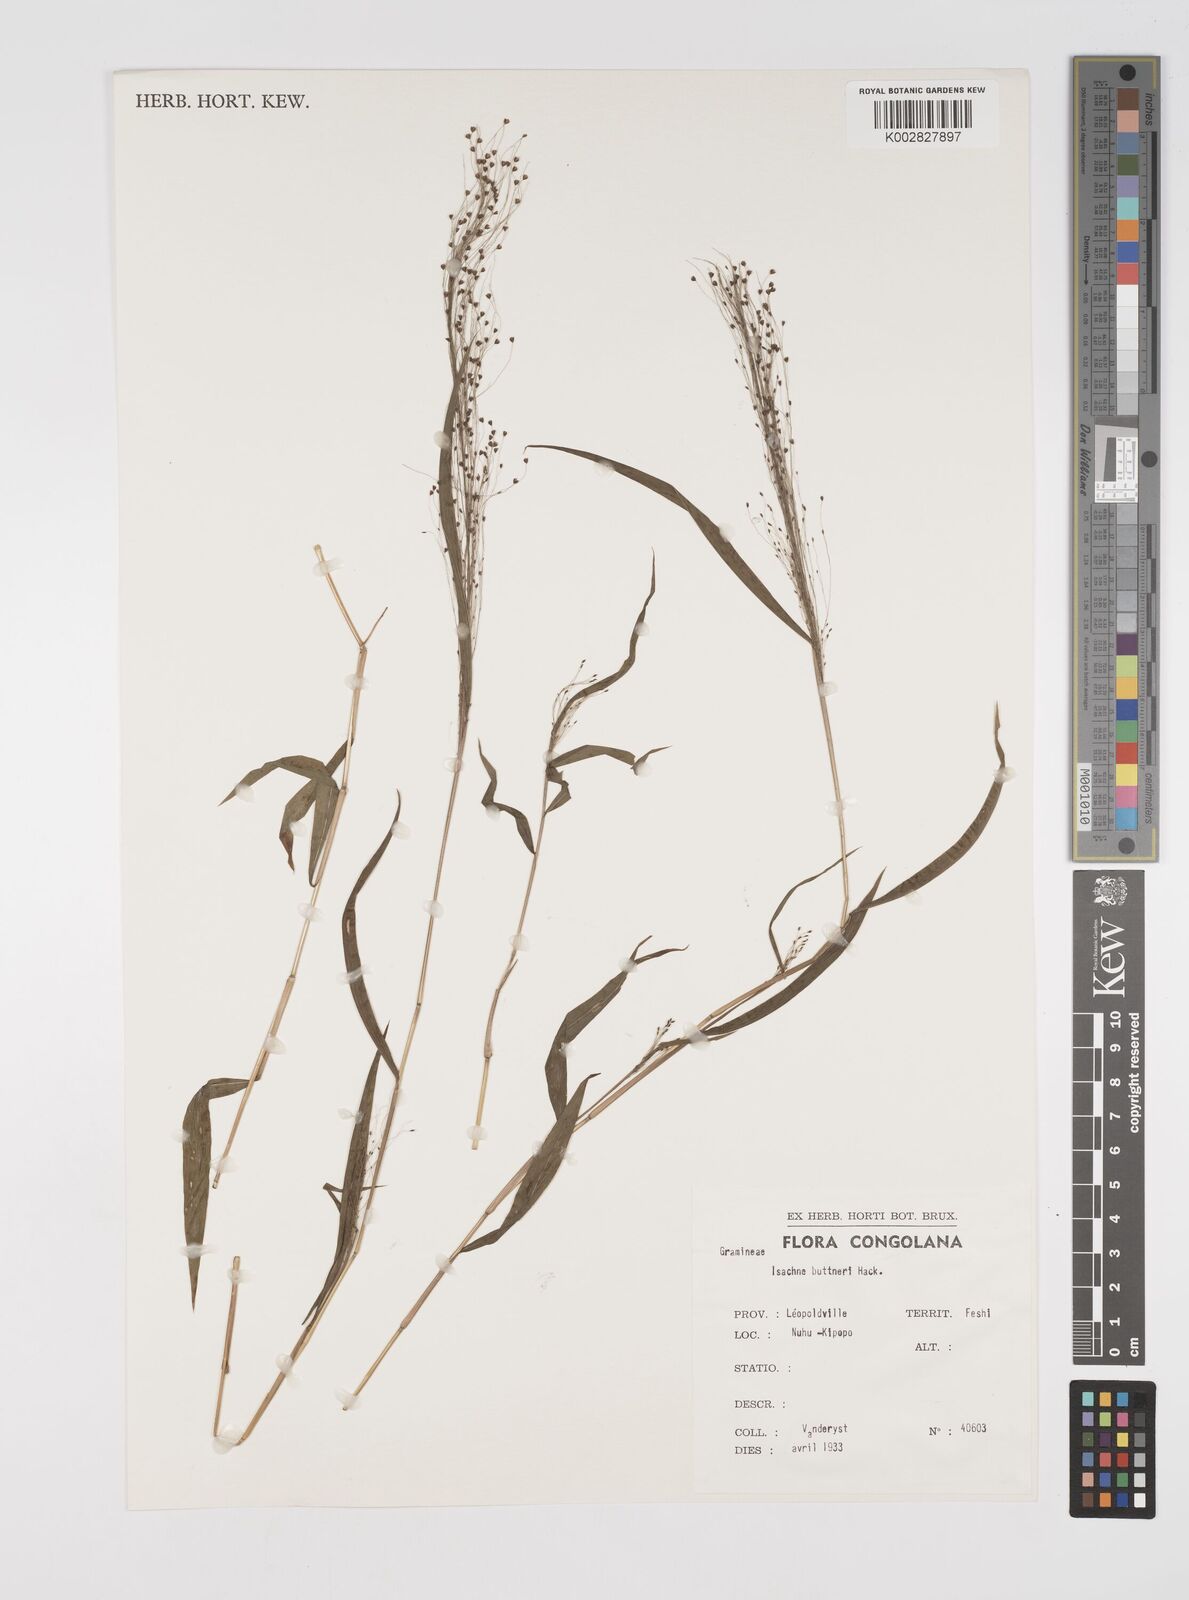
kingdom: Plantae
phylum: Tracheophyta
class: Liliopsida
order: Poales
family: Poaceae
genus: Cyrtococcum
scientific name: Cyrtococcum chaetophoron
